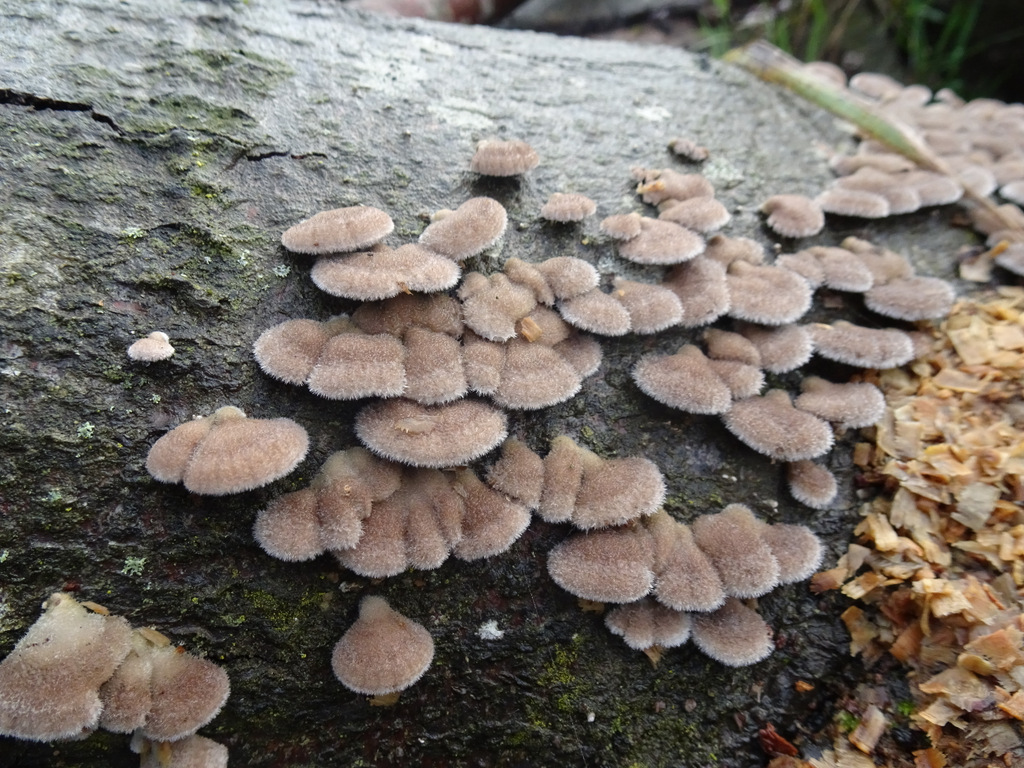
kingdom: Fungi
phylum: Basidiomycota
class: Agaricomycetes
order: Agaricales
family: Schizophyllaceae
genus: Schizophyllum
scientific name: Schizophyllum commune
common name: kløvblad
